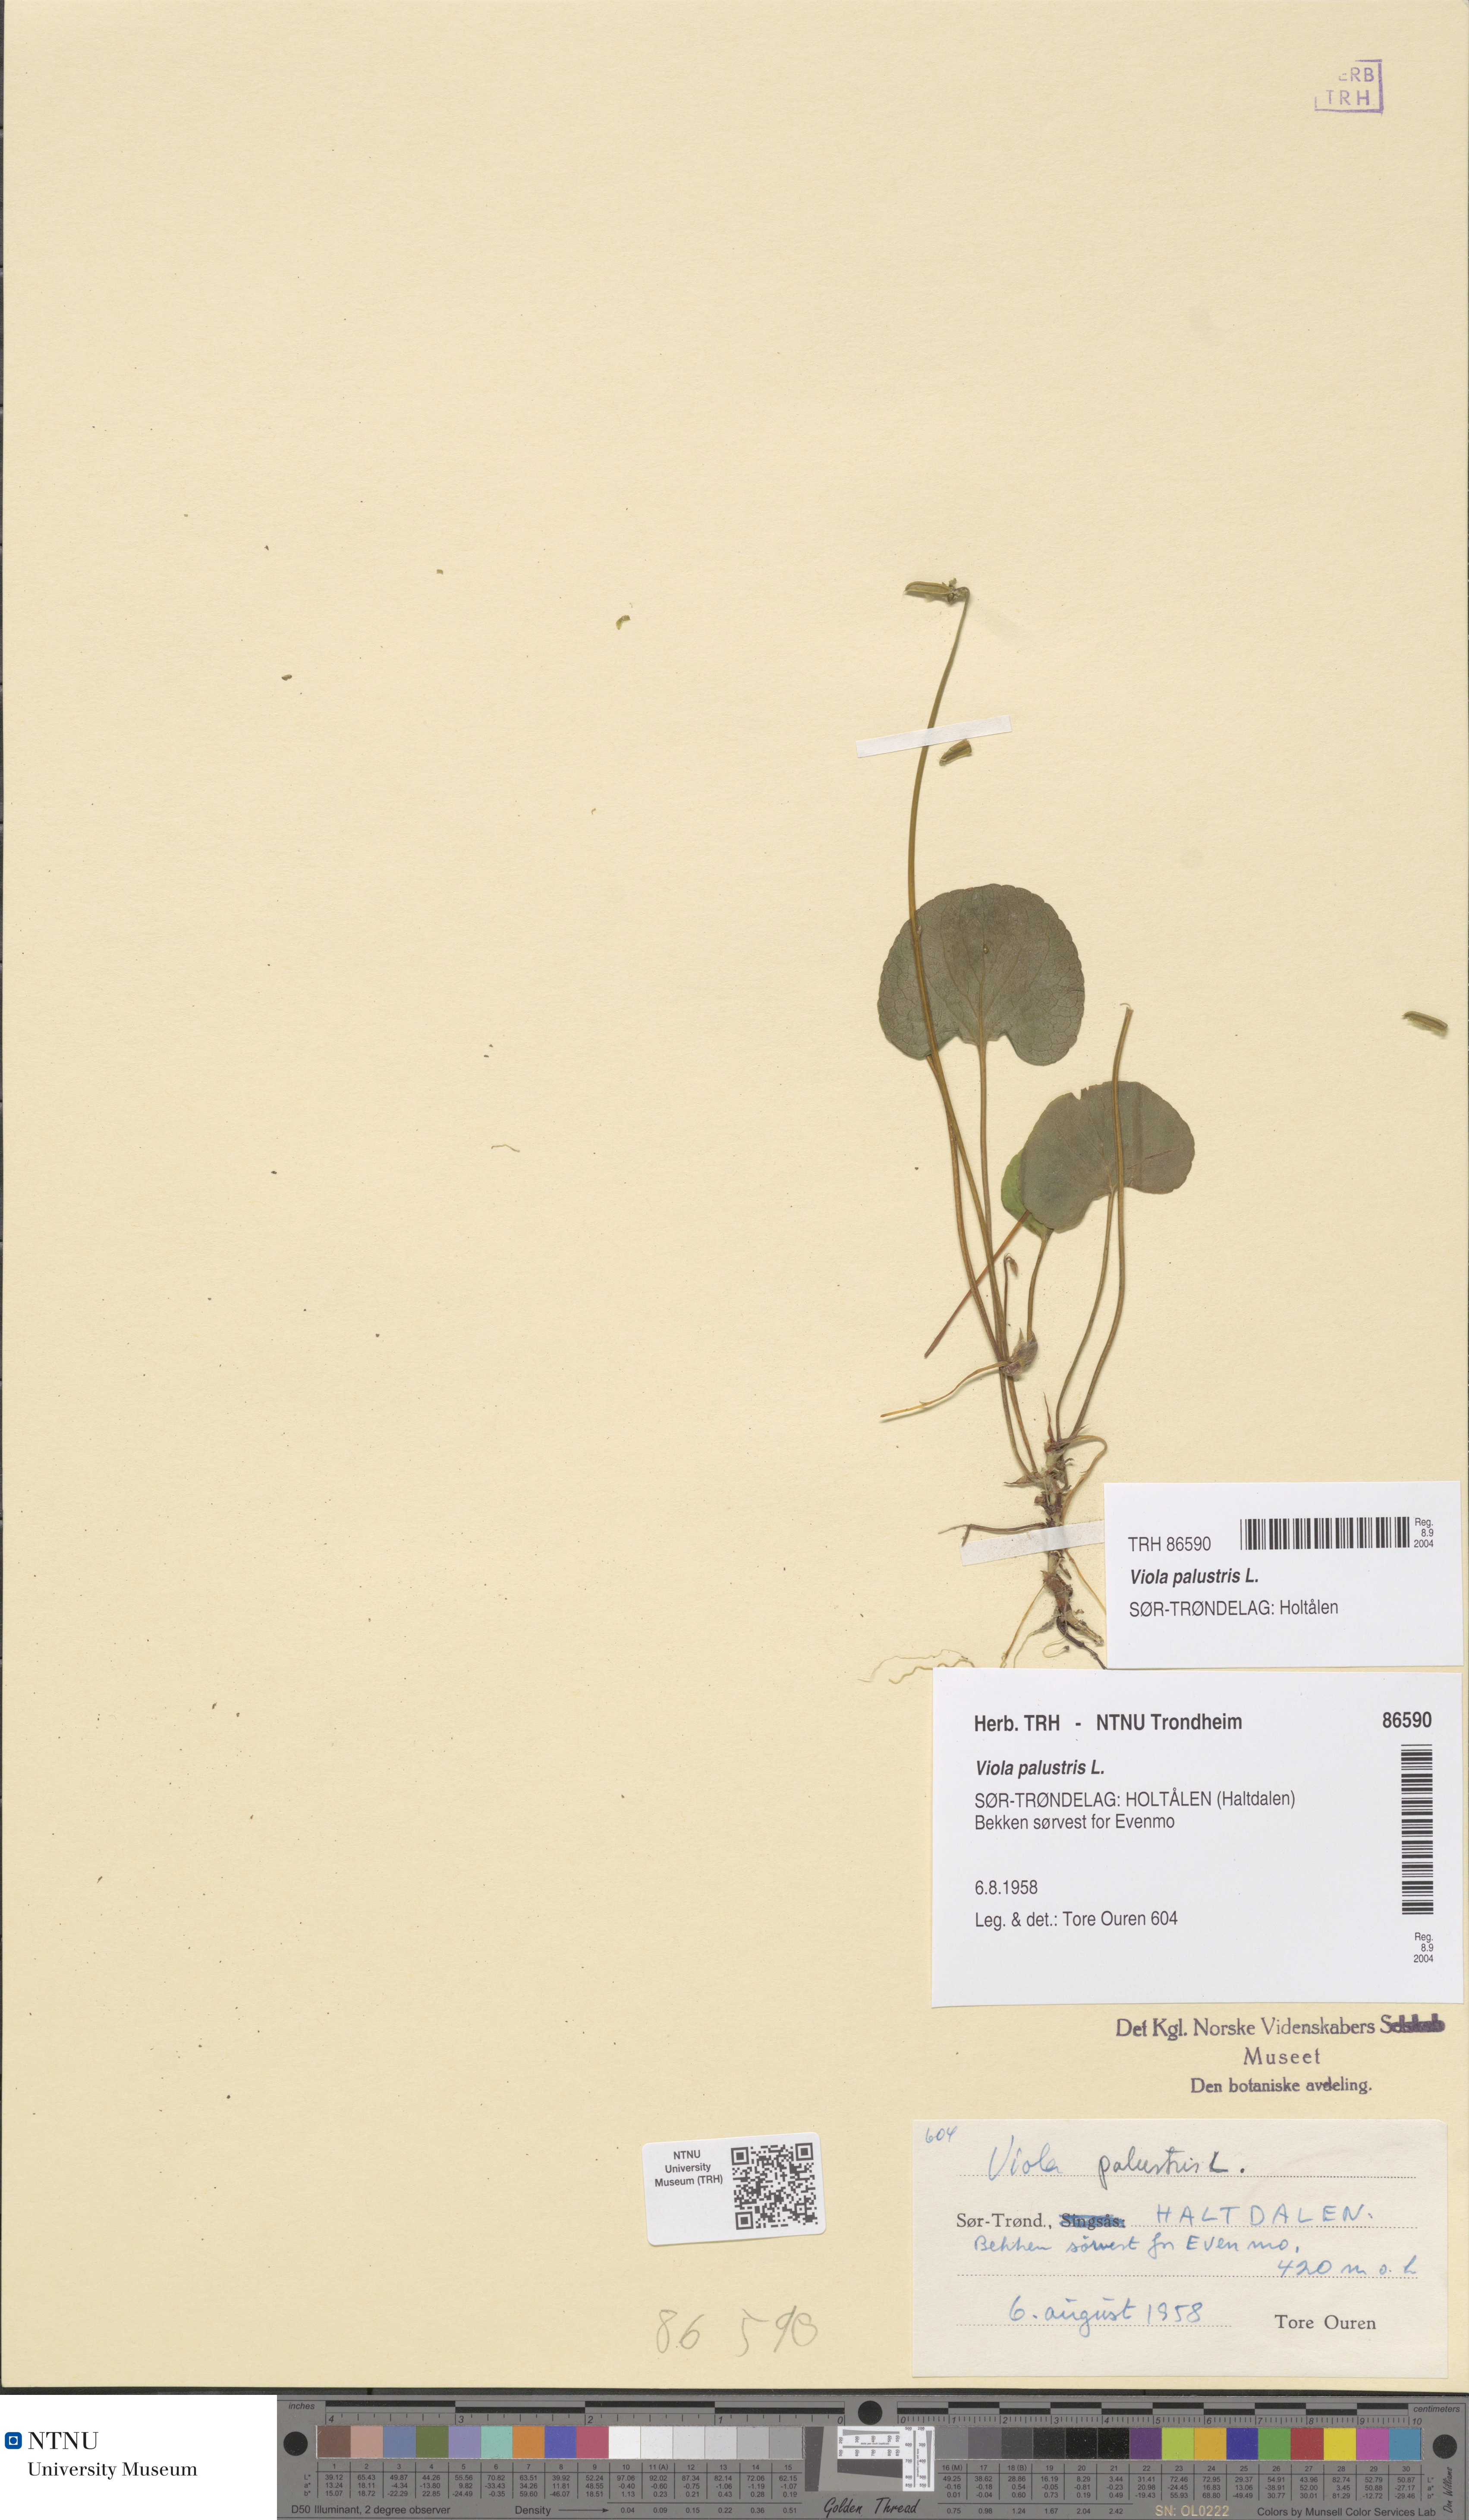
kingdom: Plantae
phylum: Tracheophyta
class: Magnoliopsida
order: Malpighiales
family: Violaceae
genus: Viola
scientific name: Viola palustris
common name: Marsh violet
